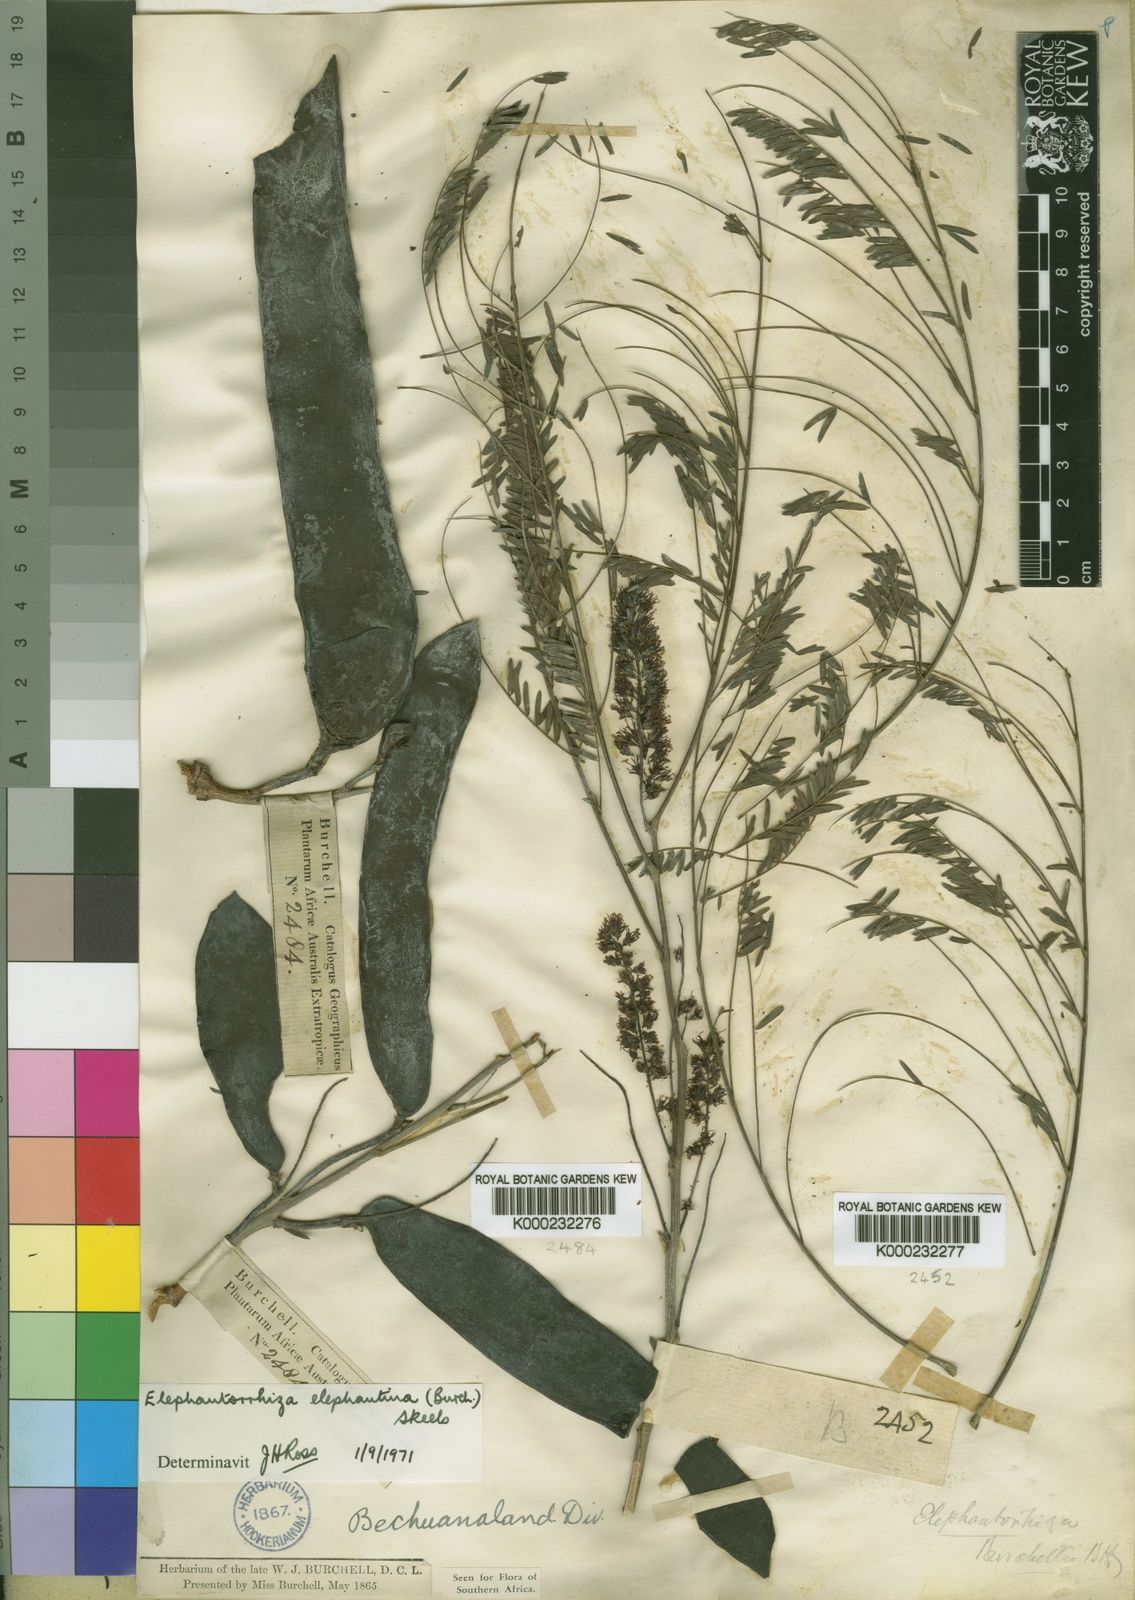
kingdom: Plantae
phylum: Tracheophyta
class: Magnoliopsida
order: Fabales
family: Fabaceae
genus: Elephantorrhiza
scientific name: Elephantorrhiza elephantina
